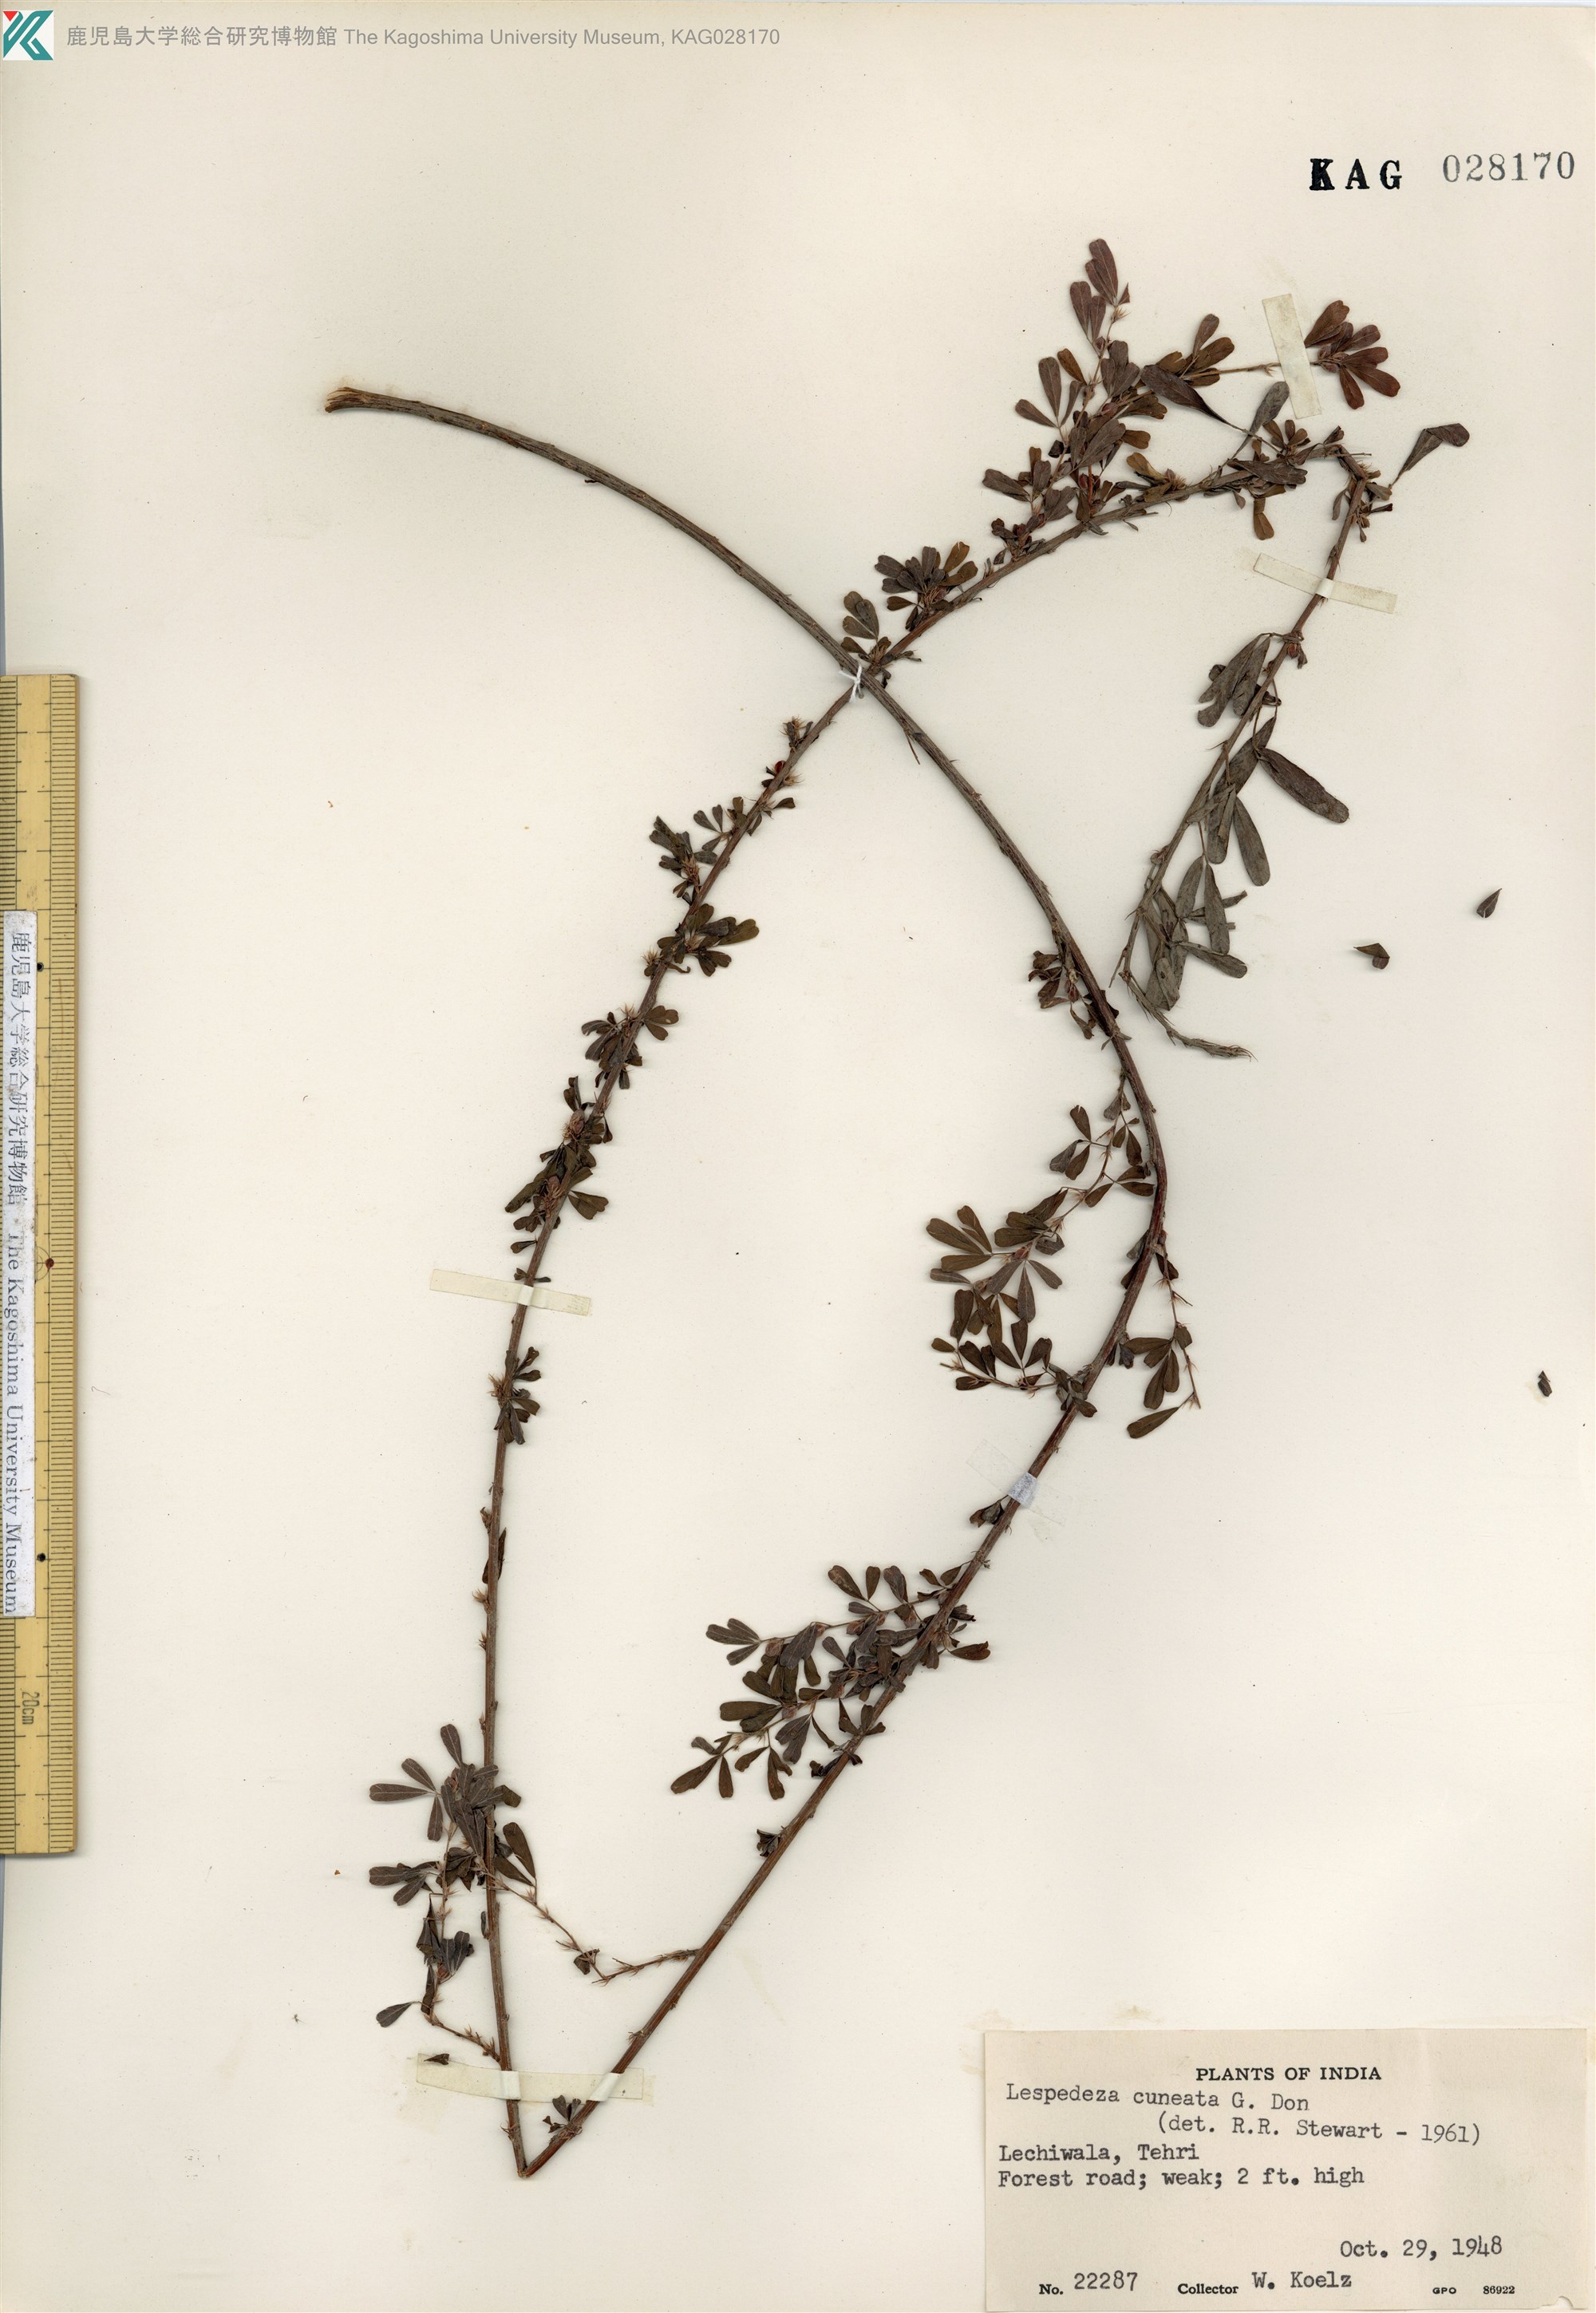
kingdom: Plantae
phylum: Tracheophyta
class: Magnoliopsida
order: Fabales
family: Fabaceae
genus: Lespedeza
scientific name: Lespedeza cuneata
